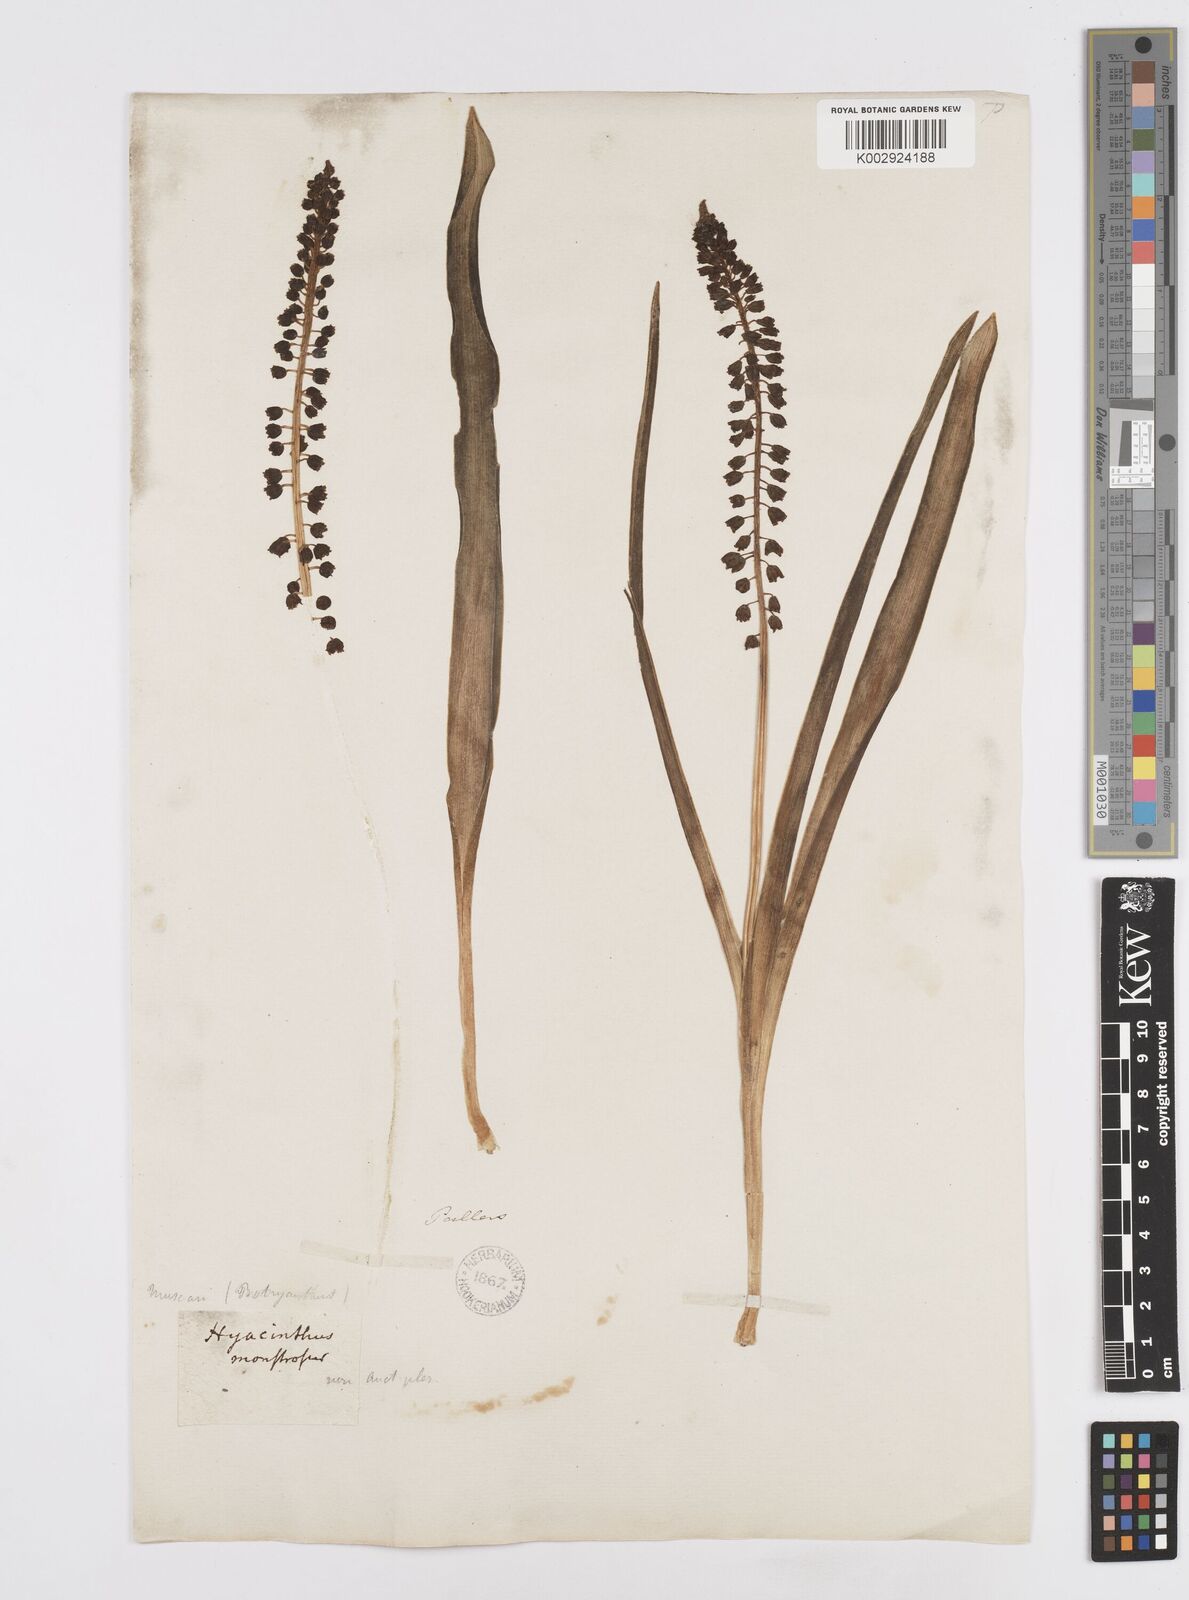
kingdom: Plantae
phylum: Tracheophyta
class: Liliopsida
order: Asparagales
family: Asparagaceae
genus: Bellevalia
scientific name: Bellevalia
